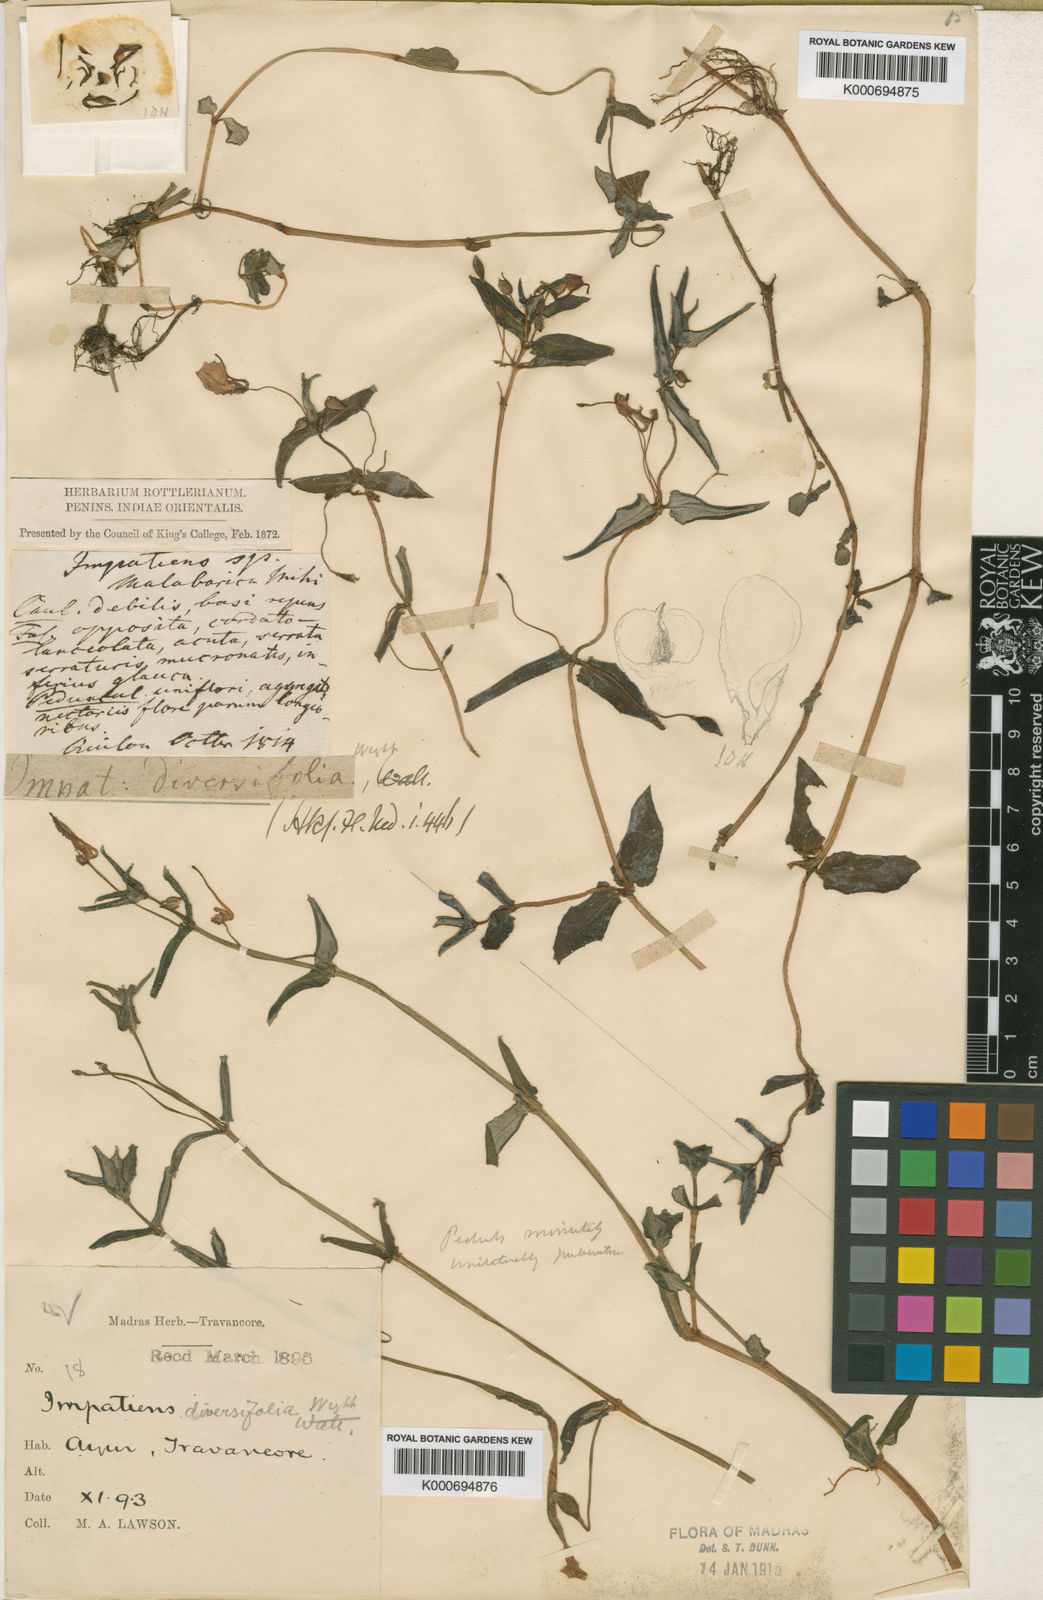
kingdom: Plantae
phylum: Tracheophyta
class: Magnoliopsida
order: Ericales
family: Balsaminaceae
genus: Impatiens
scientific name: Impatiens
